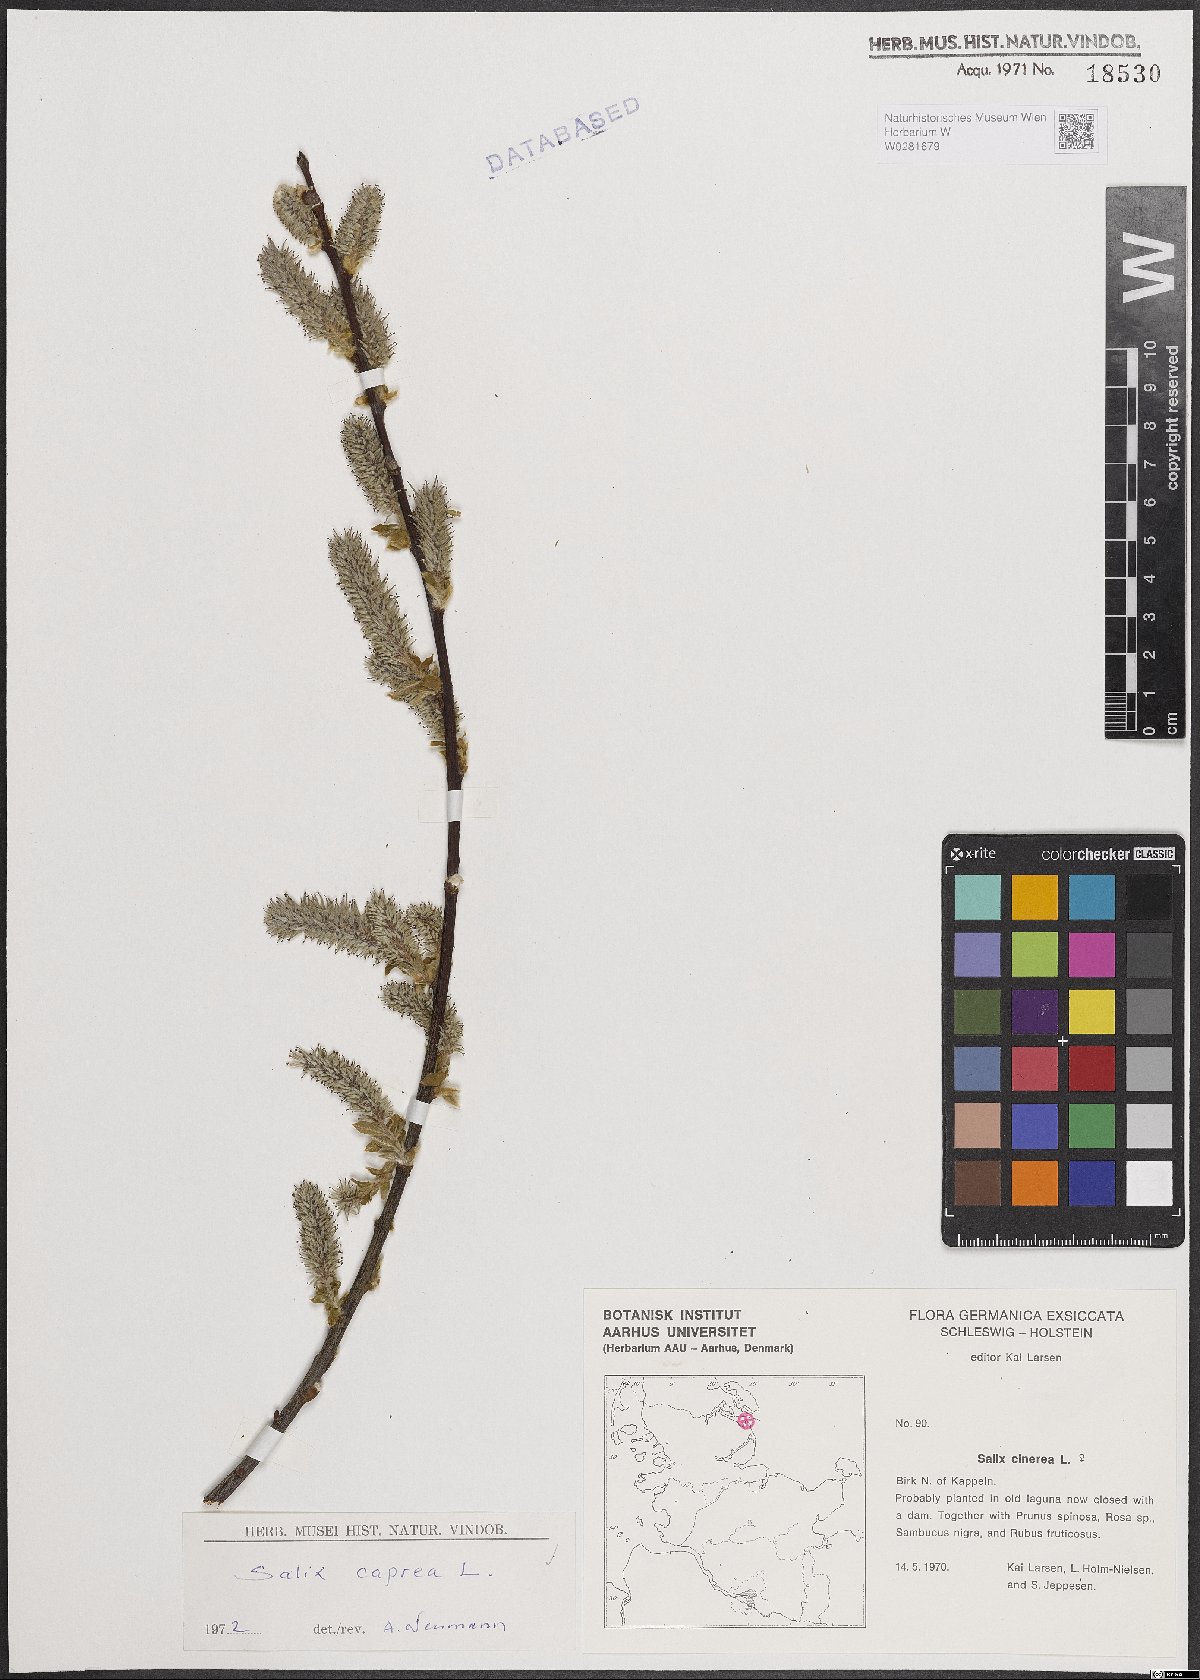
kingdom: Plantae
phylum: Tracheophyta
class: Magnoliopsida
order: Malpighiales
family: Salicaceae
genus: Salix
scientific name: Salix caprea
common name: Goat willow
